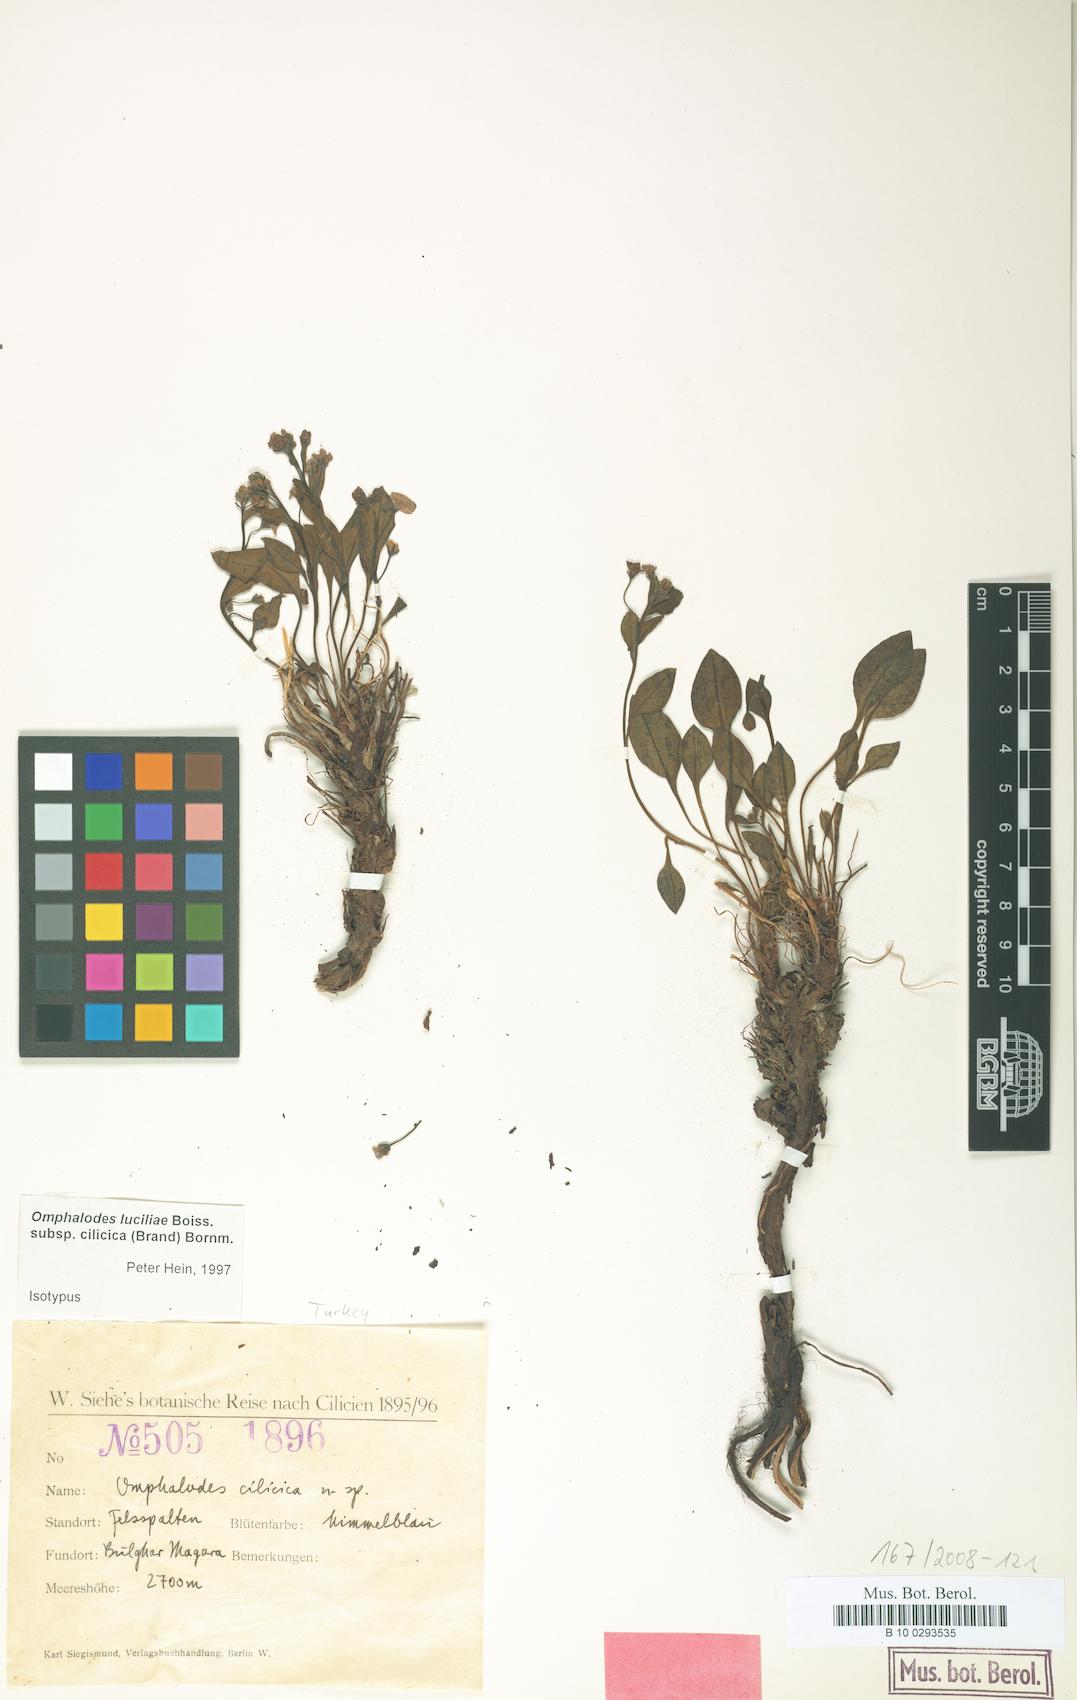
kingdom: Plantae
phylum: Tracheophyta
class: Magnoliopsida
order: Boraginales
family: Boraginaceae
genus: Omphalodes
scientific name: Omphalodes luciliae
